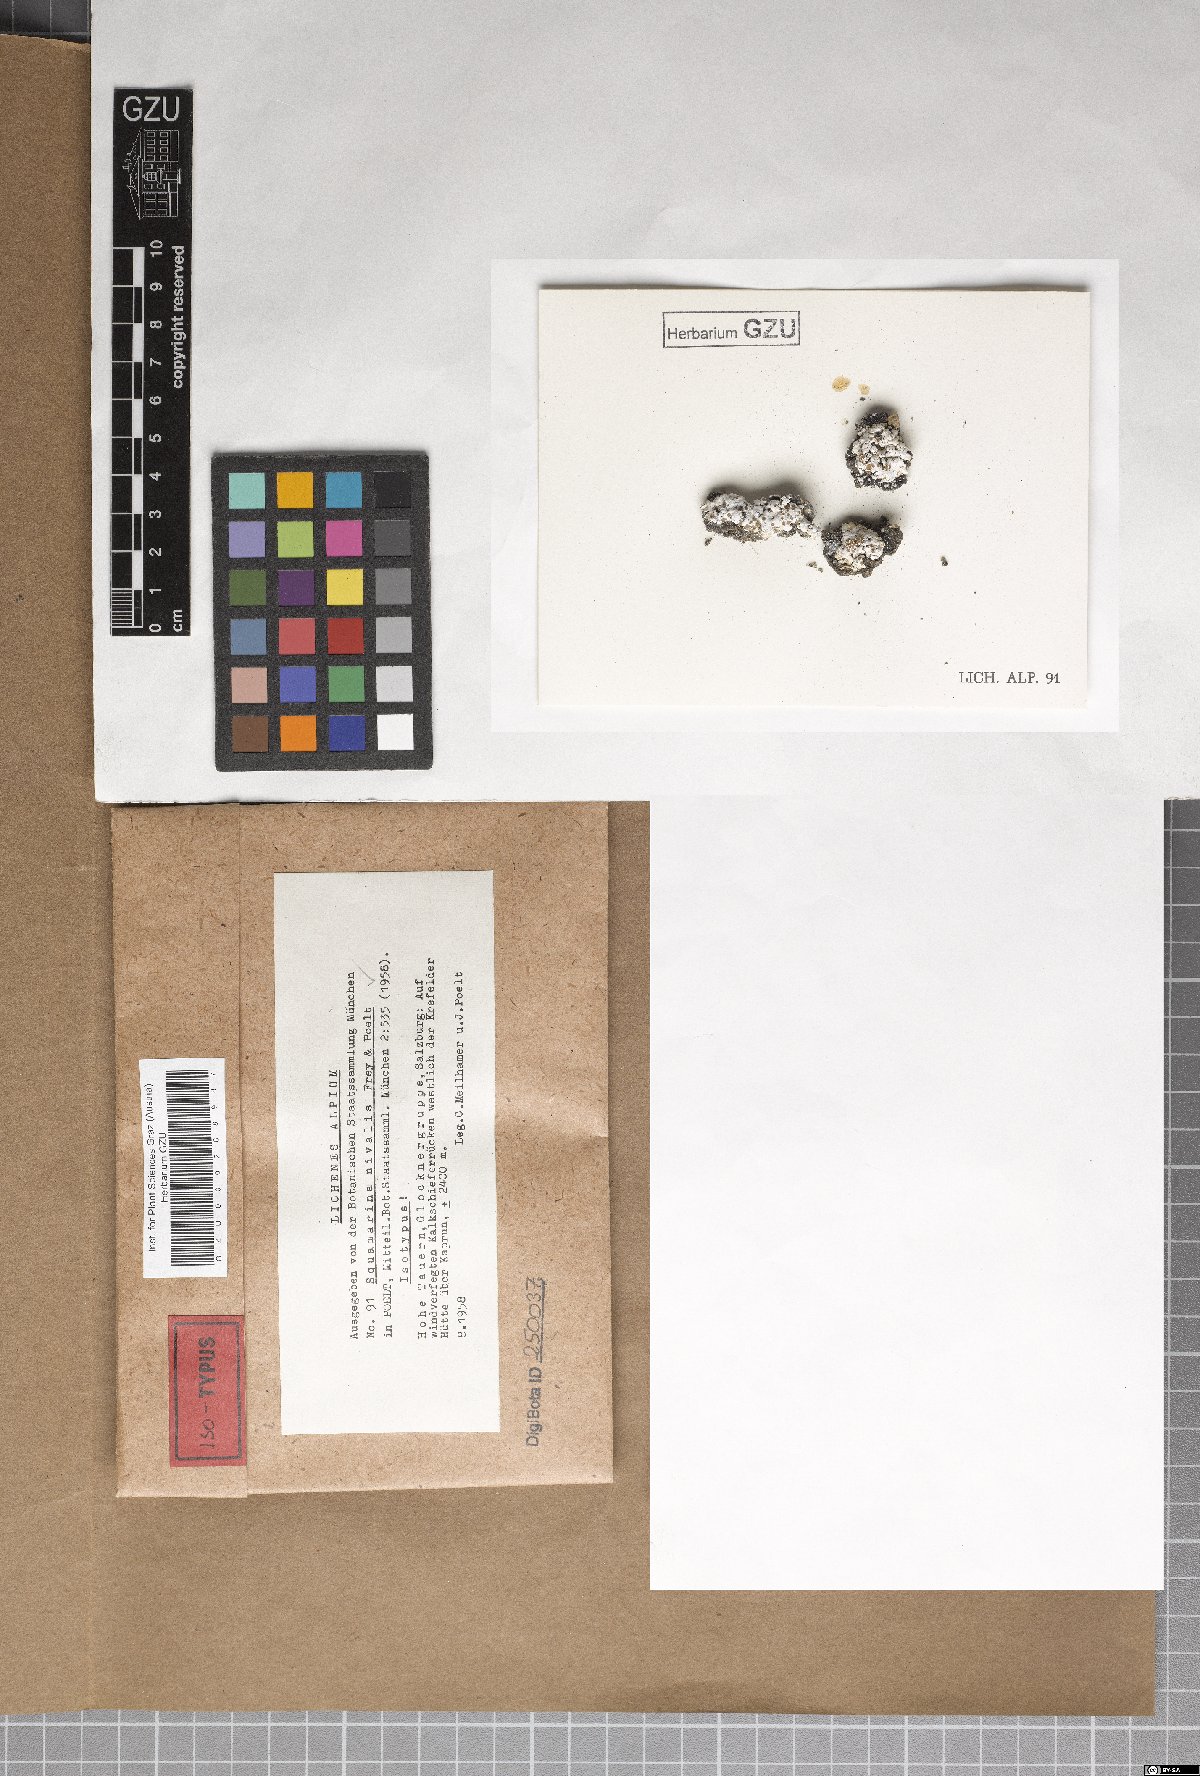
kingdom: Fungi
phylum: Ascomycota
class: Lecanoromycetes
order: Lecanorales
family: Stereocaulaceae
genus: Squamarina
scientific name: Squamarina lentigera
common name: Scaly breck-lichen
